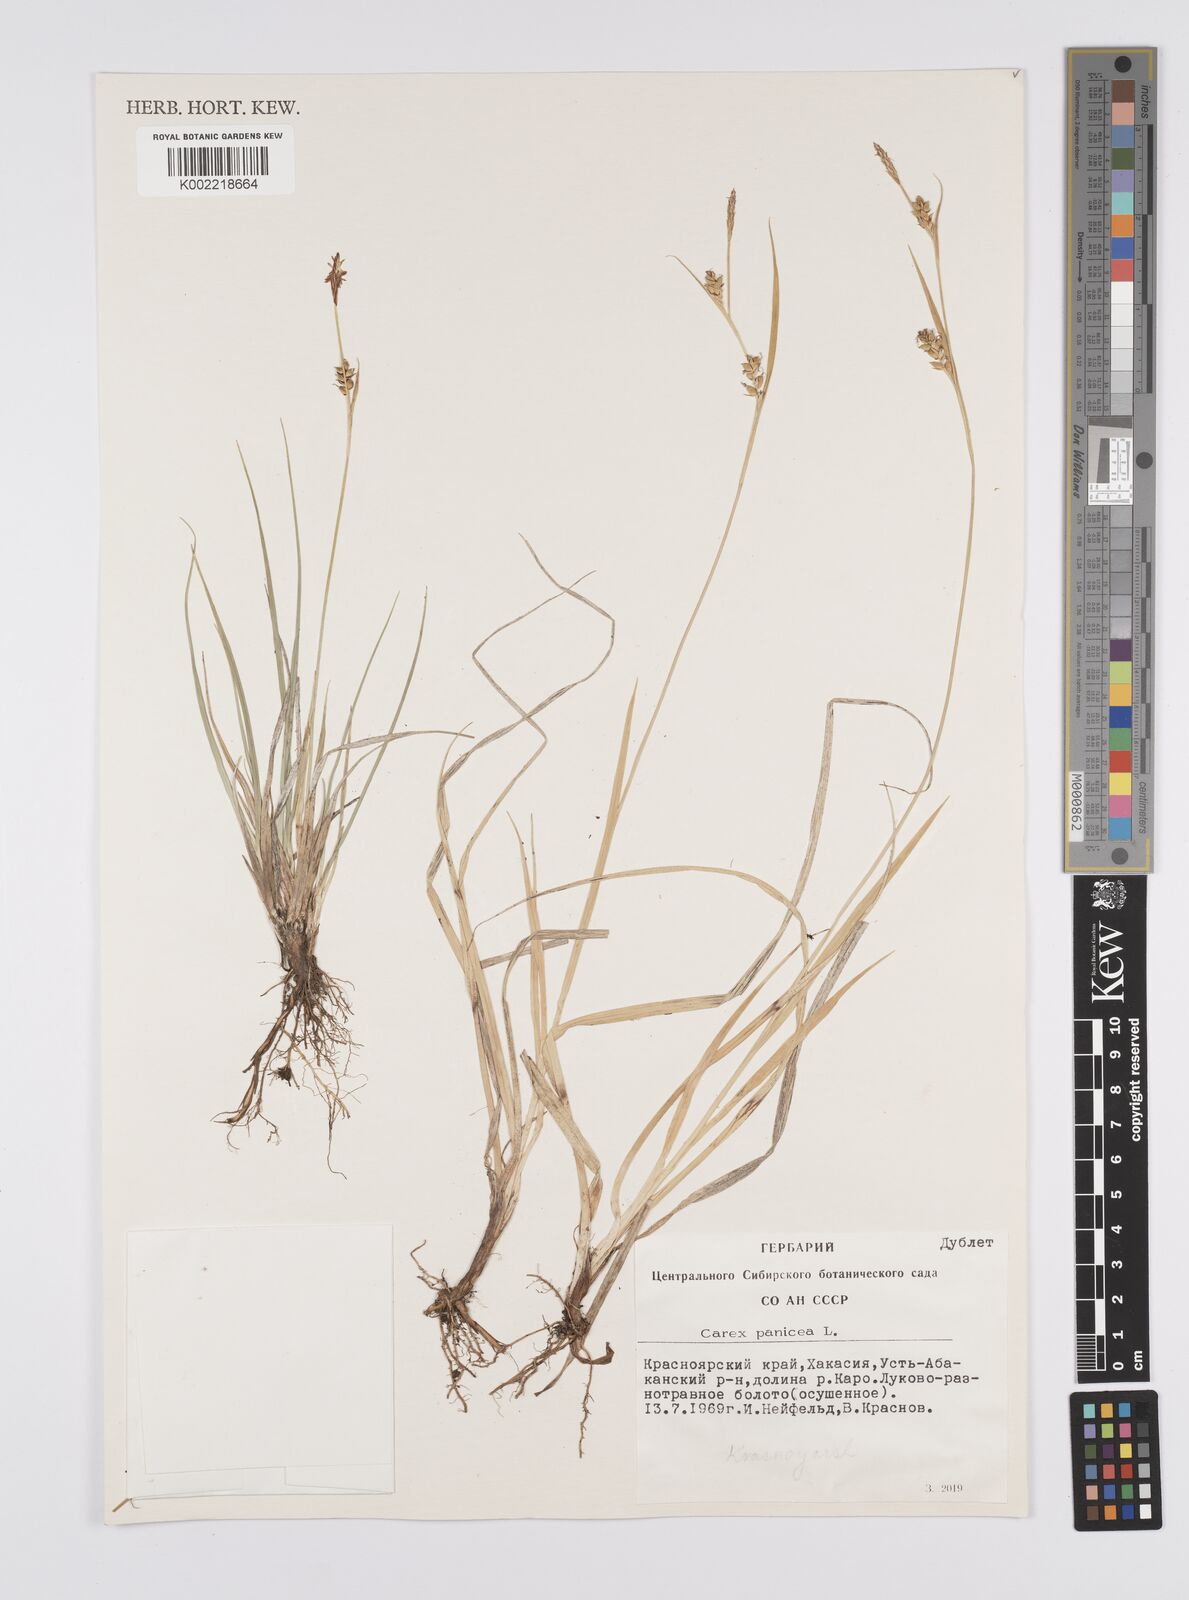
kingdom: Plantae
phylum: Tracheophyta
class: Liliopsida
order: Poales
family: Cyperaceae
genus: Carex
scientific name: Carex panicea
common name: Carnation sedge
